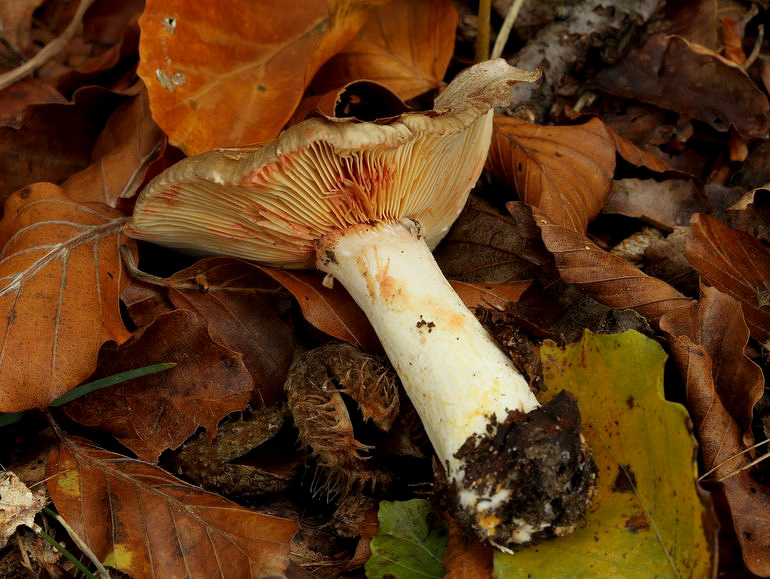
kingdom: Fungi
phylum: Basidiomycota
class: Agaricomycetes
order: Russulales
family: Russulaceae
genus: Lactarius
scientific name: Lactarius acris
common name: rosamælket mælkehat
